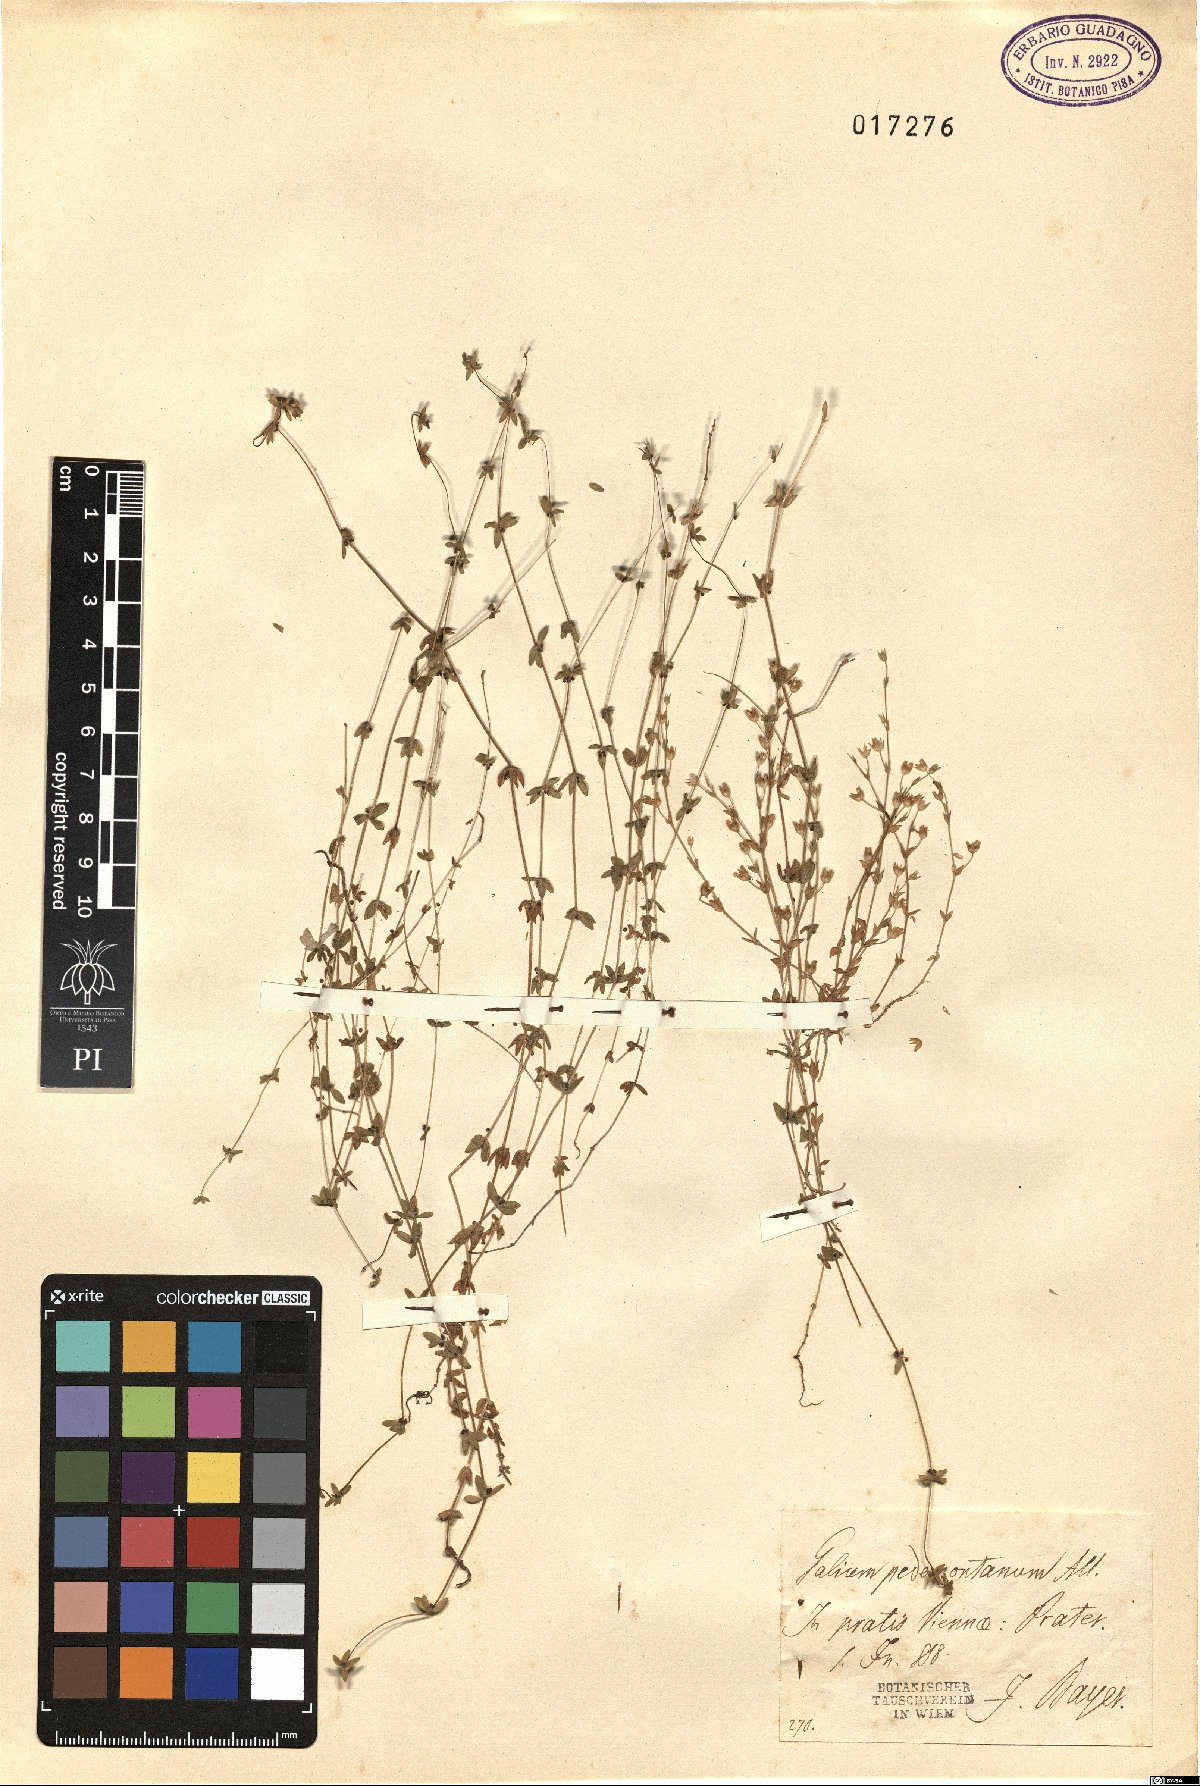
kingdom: Plantae
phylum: Tracheophyta
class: Magnoliopsida
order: Gentianales
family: Rubiaceae
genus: Cruciata
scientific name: Cruciata pedemontana
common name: Piedmont bedstraw
